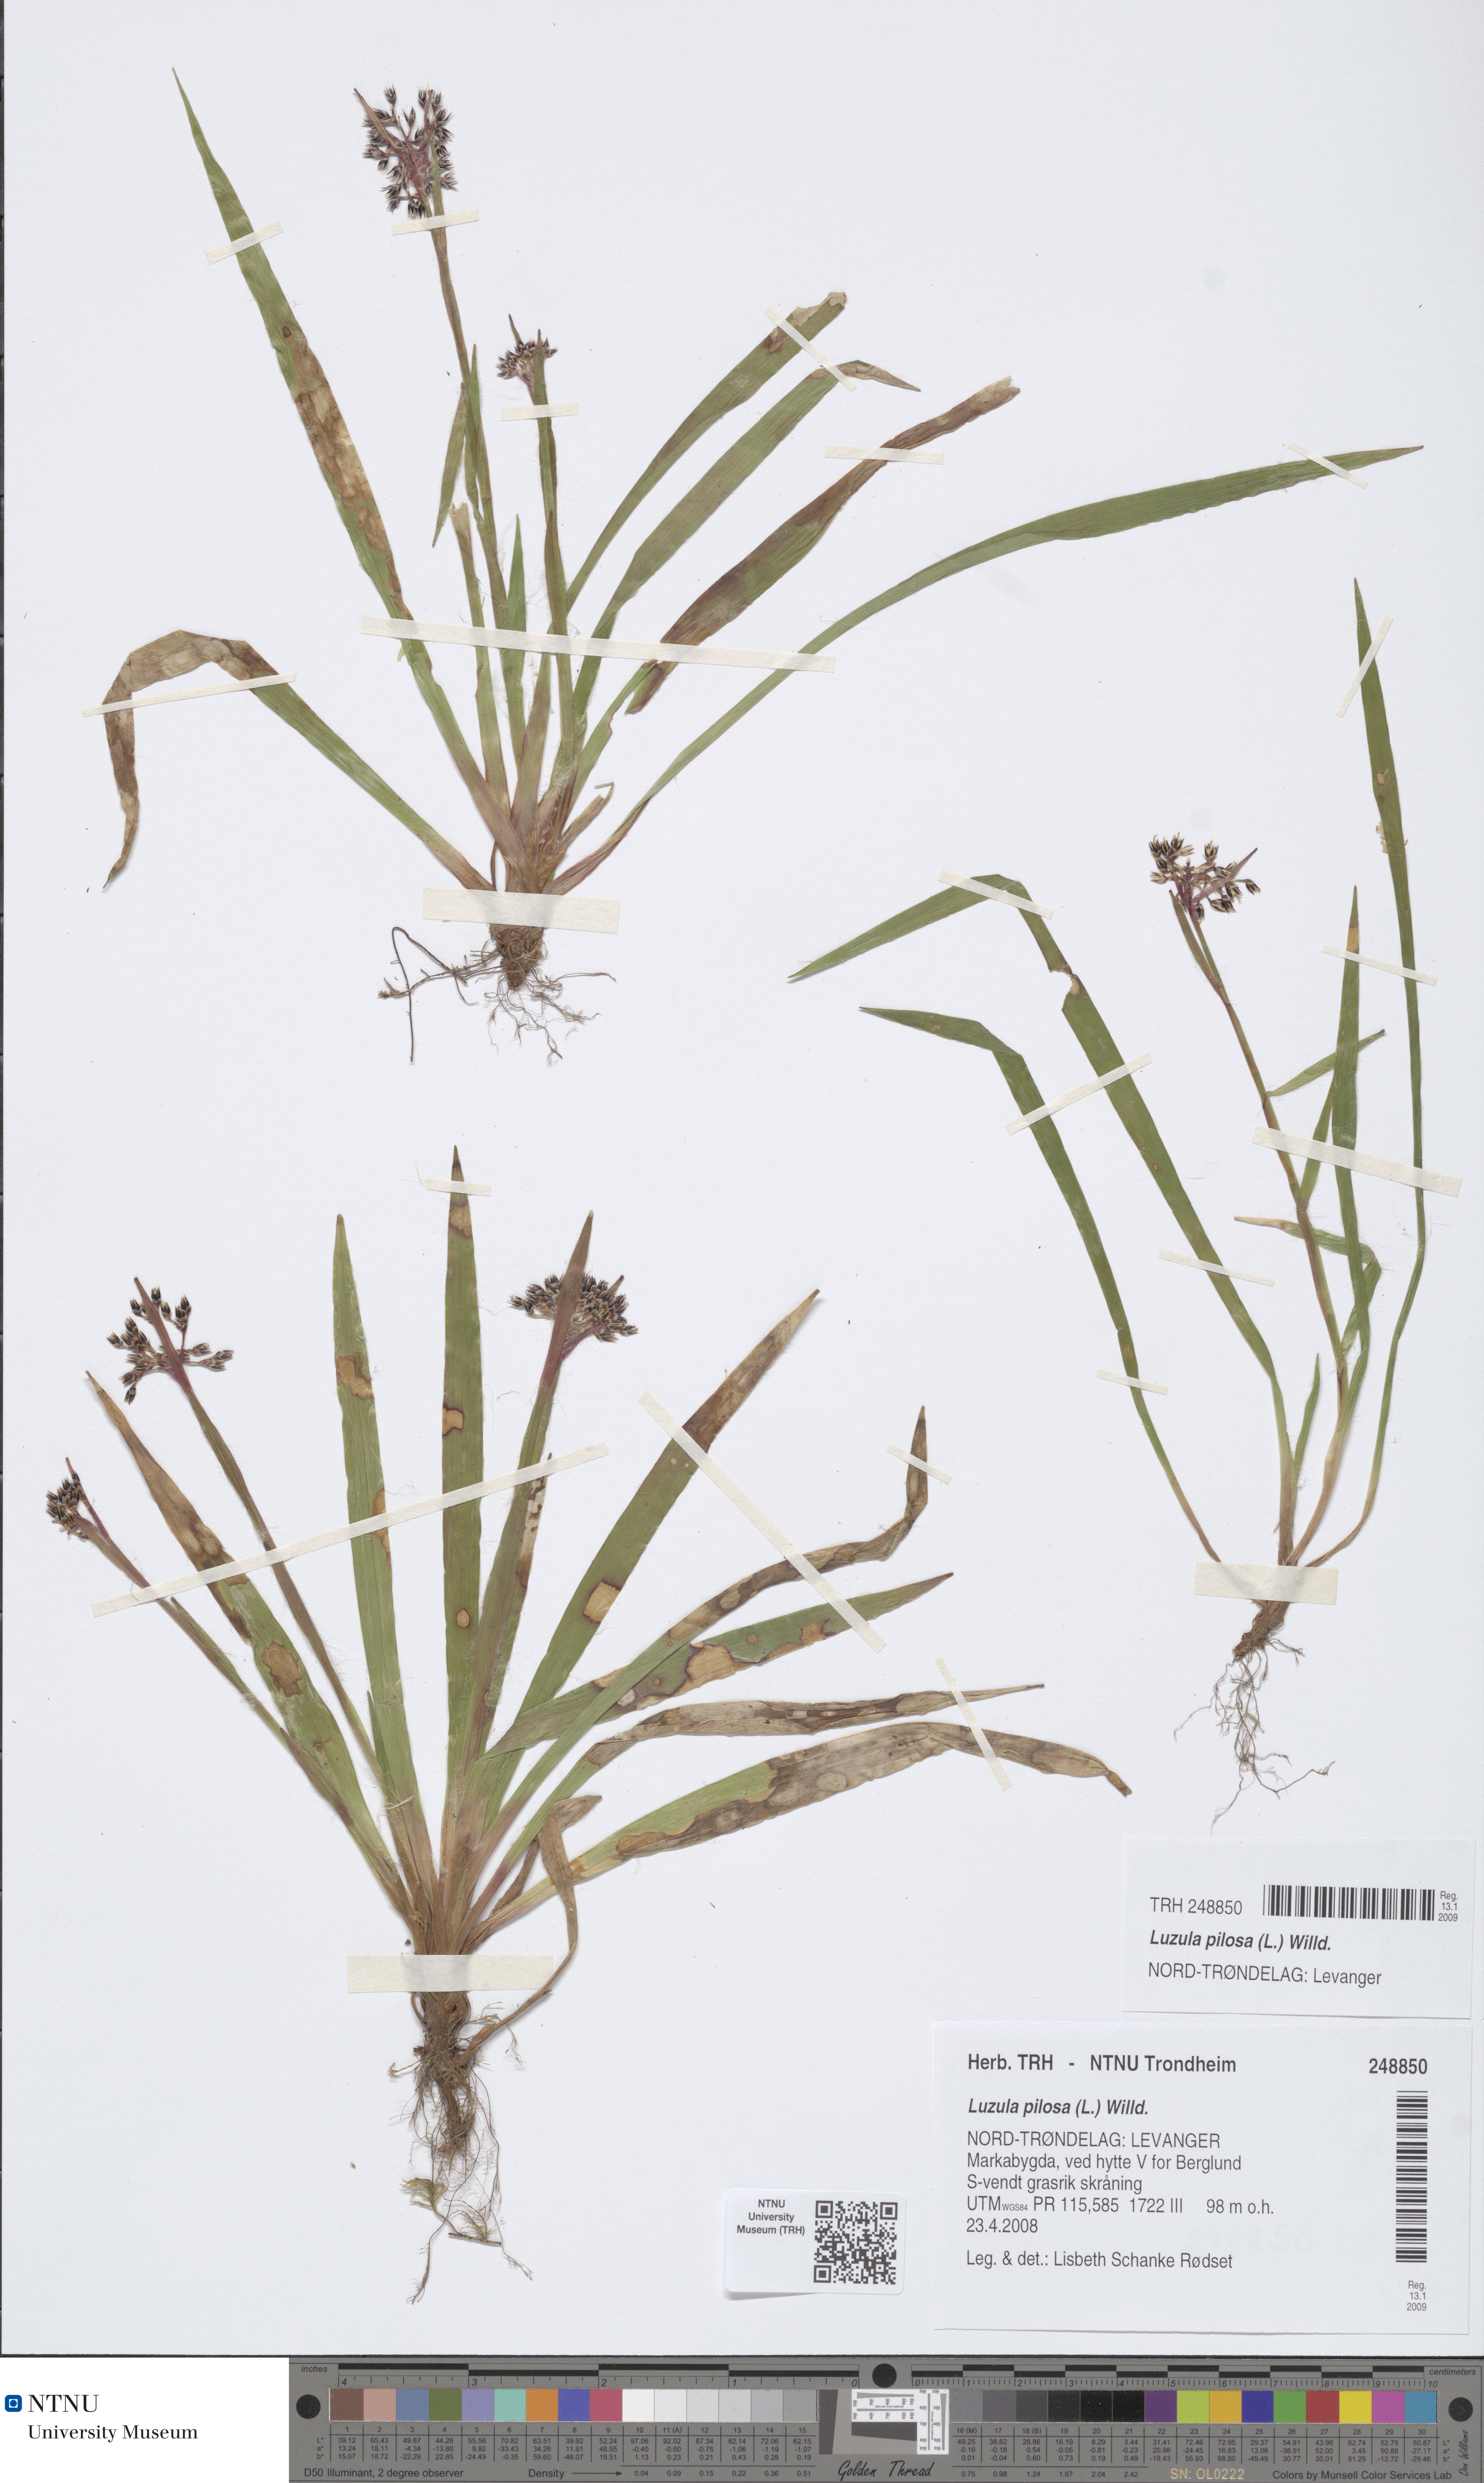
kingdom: Plantae
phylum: Tracheophyta
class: Liliopsida
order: Poales
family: Juncaceae
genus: Luzula
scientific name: Luzula pilosa
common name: Hairy wood-rush
